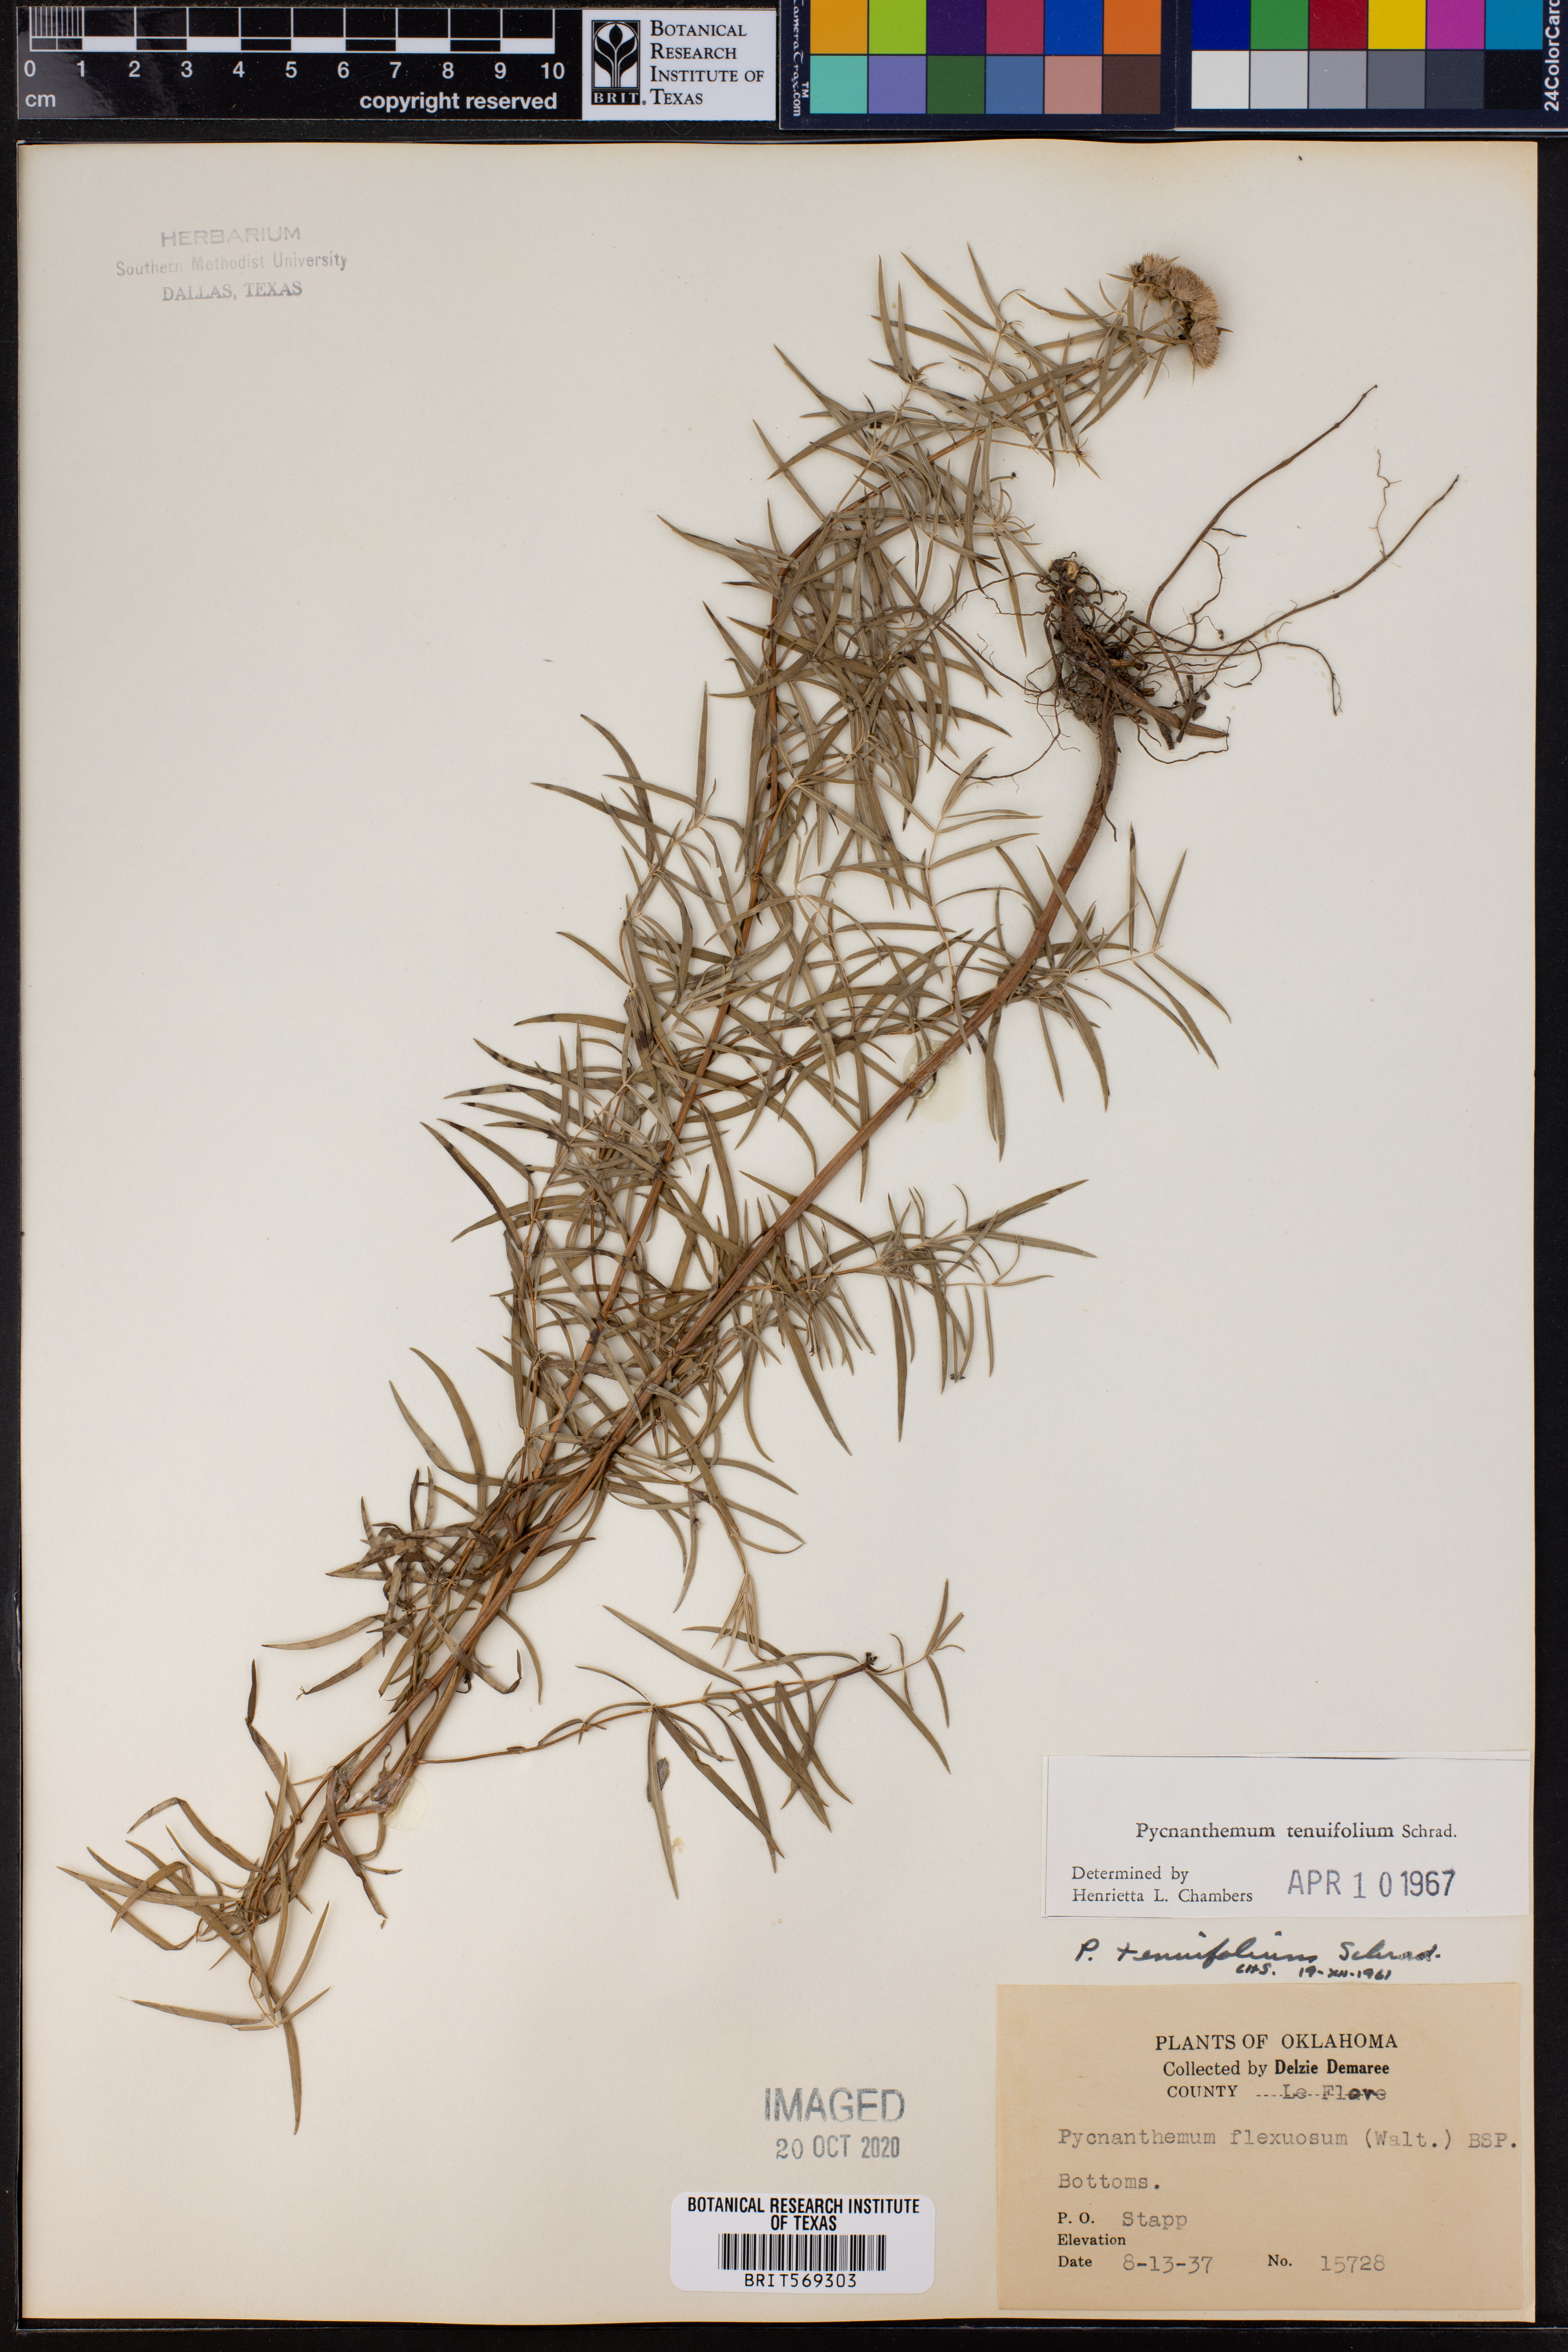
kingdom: Plantae
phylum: Tracheophyta
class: Magnoliopsida
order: Lamiales
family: Lamiaceae
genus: Pycnanthemum
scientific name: Pycnanthemum tenuifolium
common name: Narrow-leaf mountain-mint
